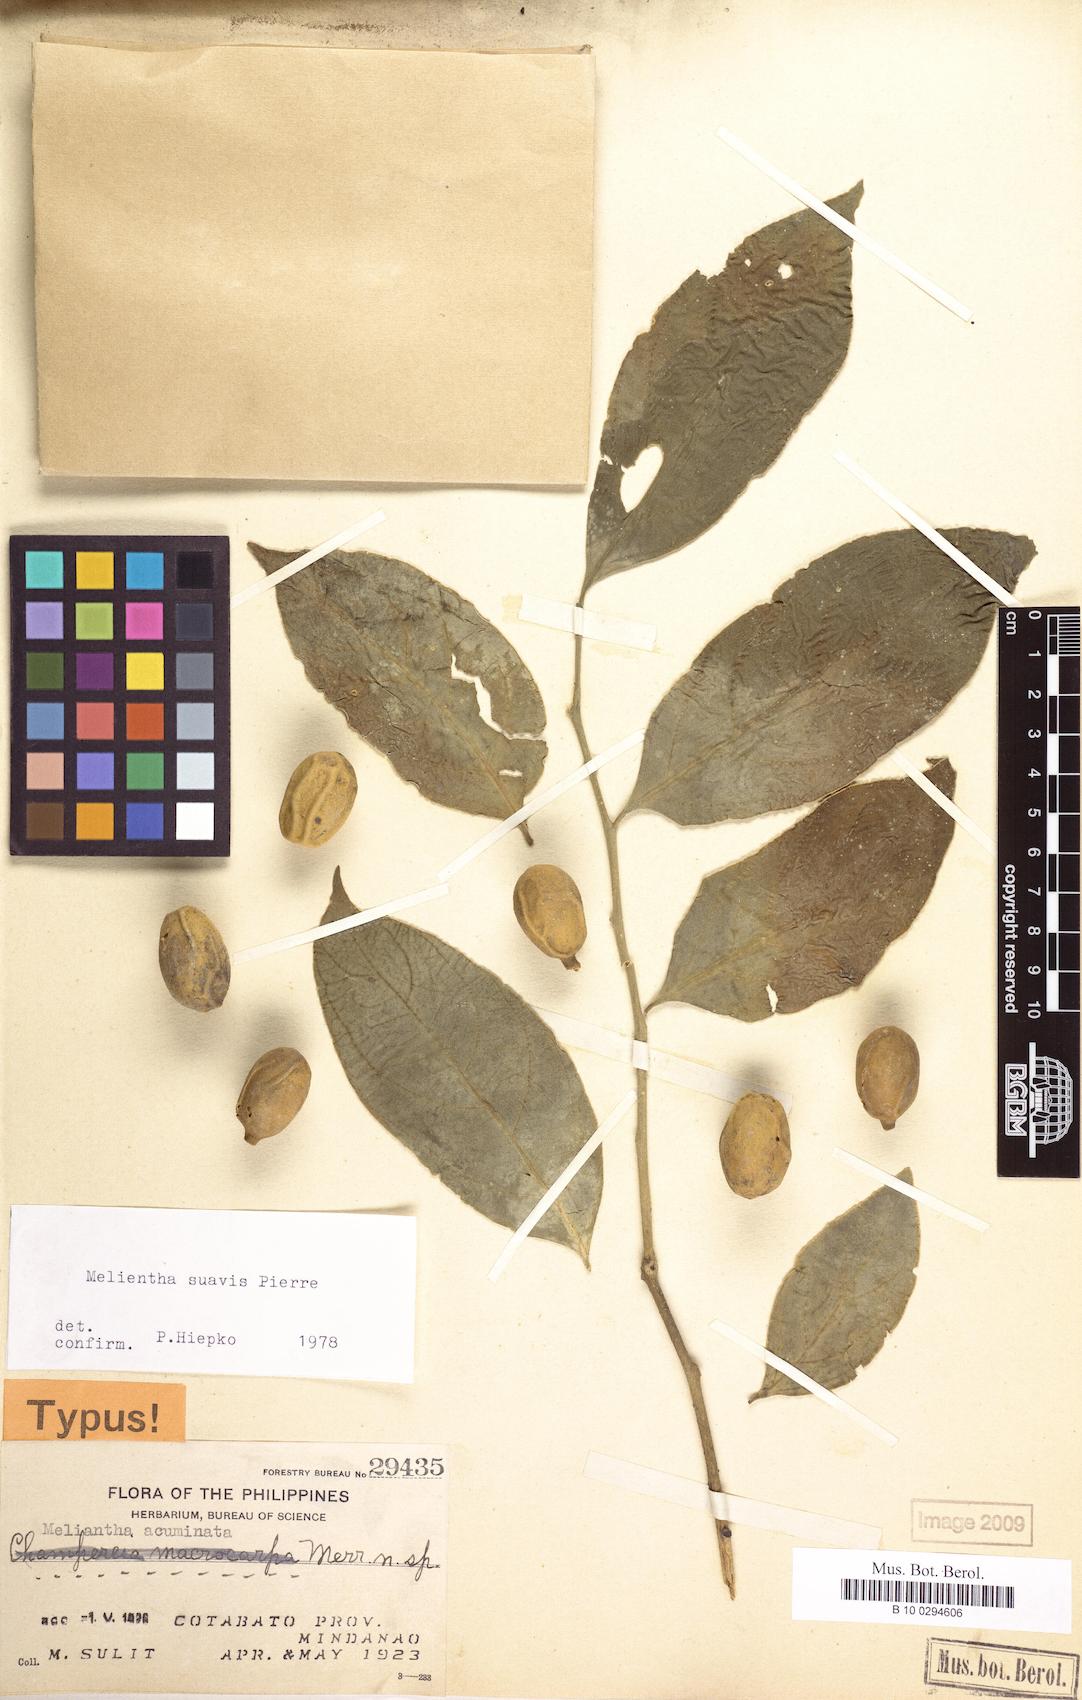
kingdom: Plantae
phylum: Tracheophyta
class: Magnoliopsida
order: Santalales
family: Opiliaceae
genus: Melientha
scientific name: Melientha suavis
